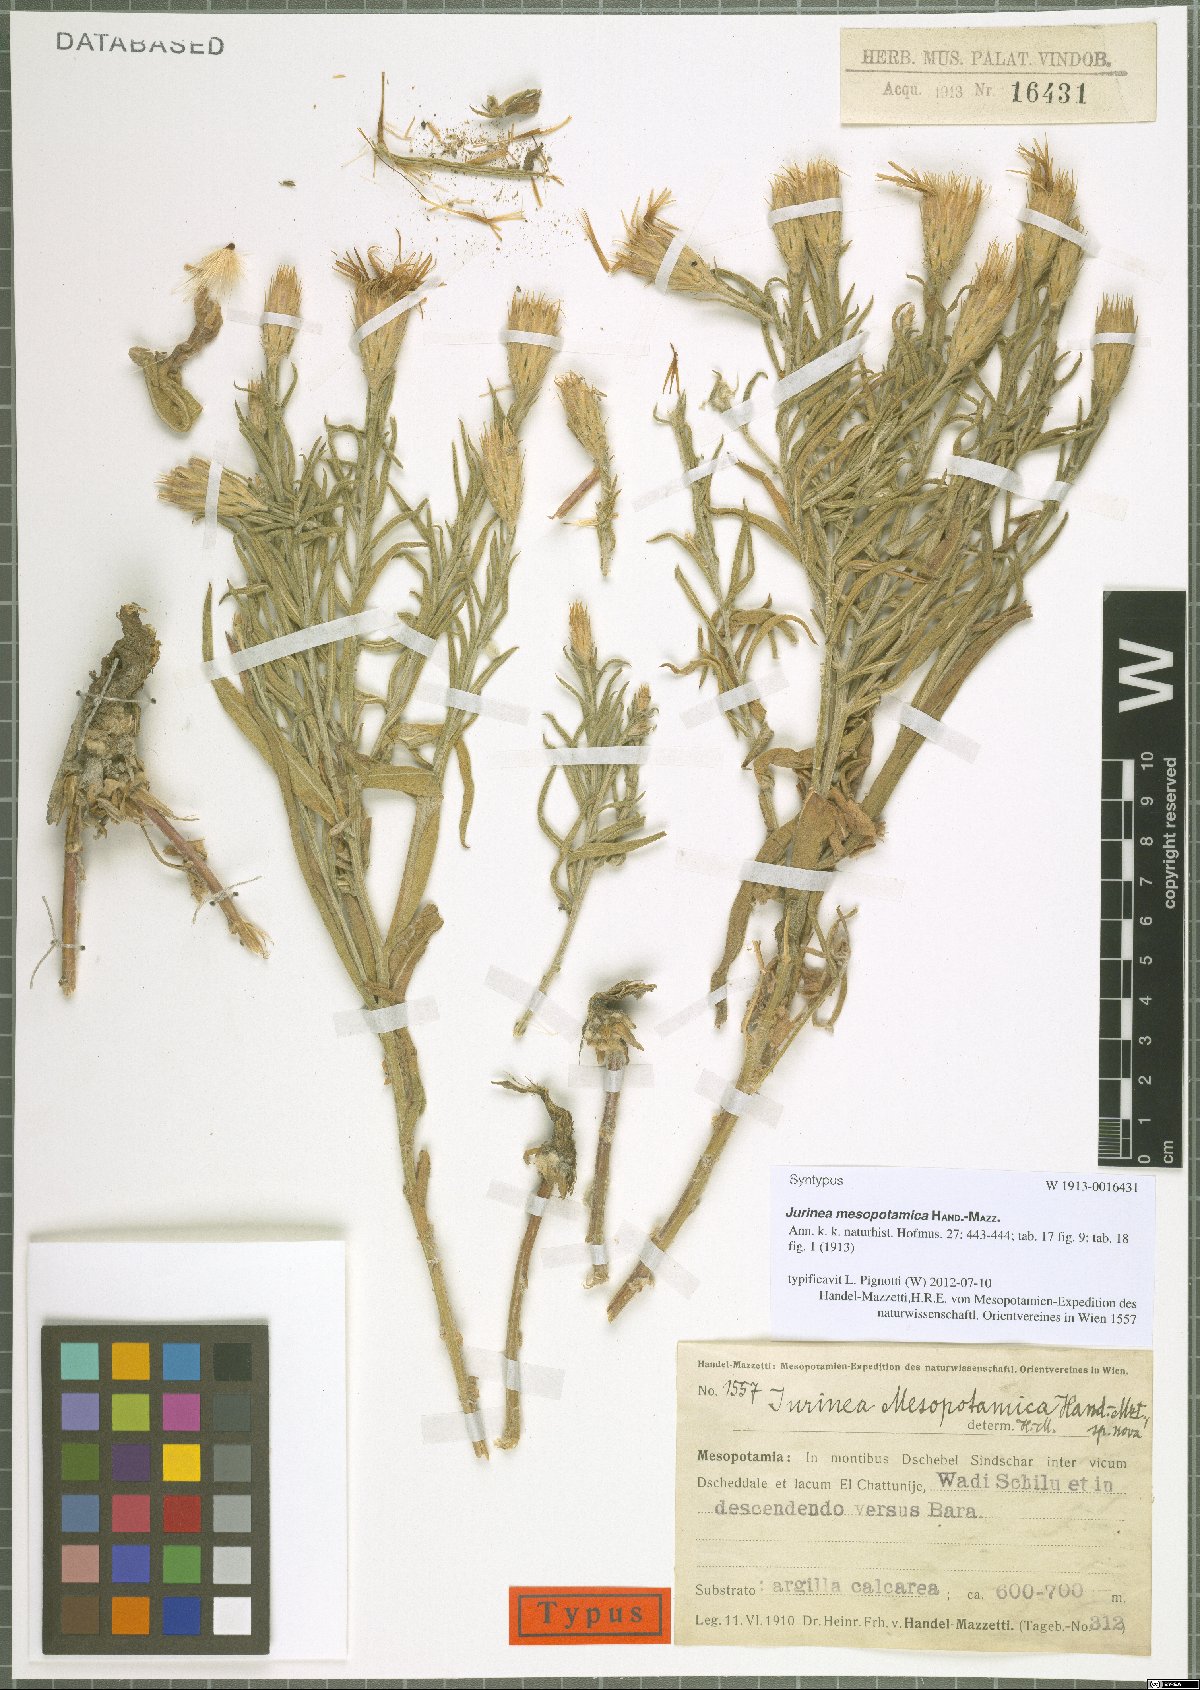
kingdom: Plantae
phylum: Tracheophyta
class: Magnoliopsida
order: Asterales
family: Asteraceae
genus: Jurinea
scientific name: Jurinea mesopotamica
